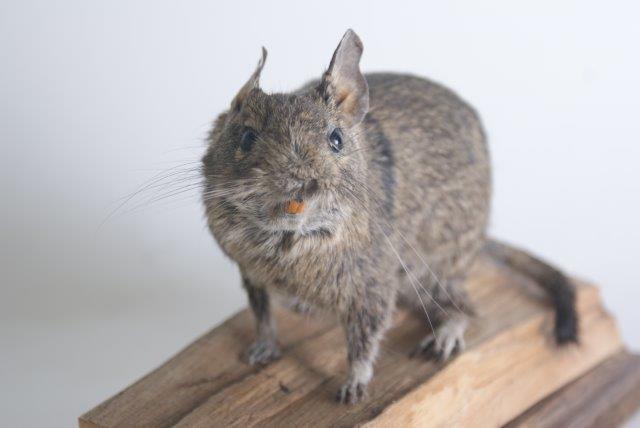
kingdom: Animalia
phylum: Chordata
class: Mammalia
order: Rodentia
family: Octodontidae
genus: Octodon
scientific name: Octodon degus
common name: Degu
